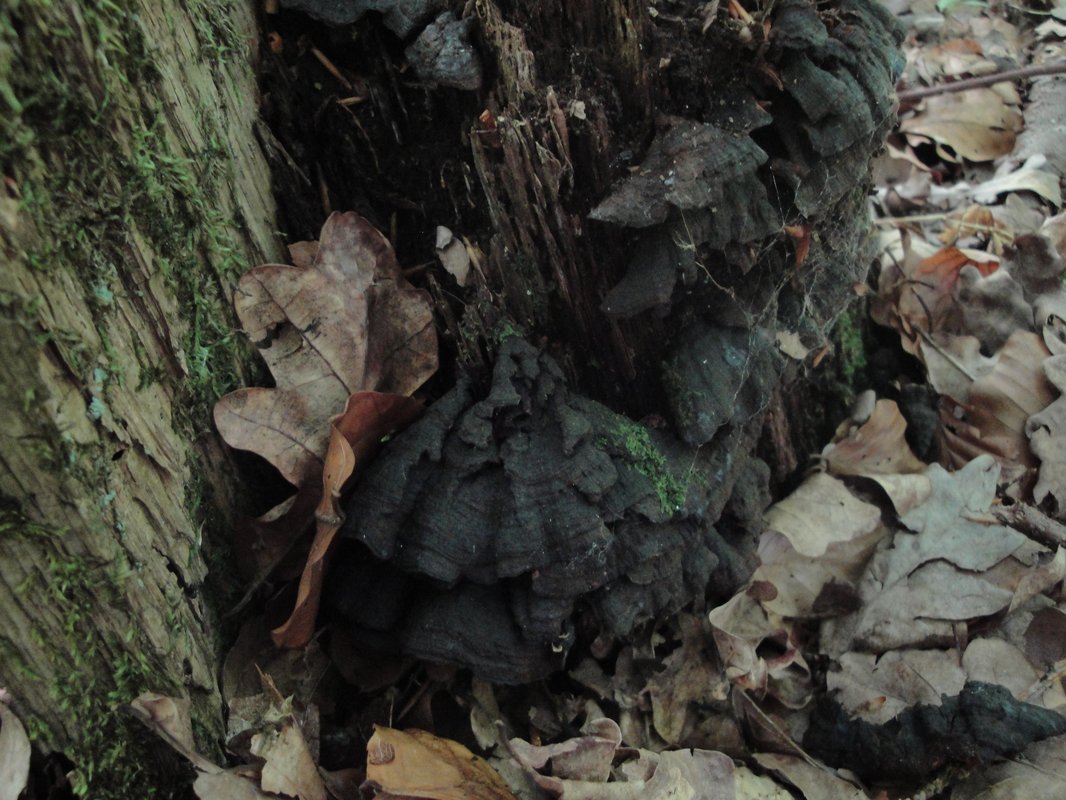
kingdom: Fungi
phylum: Basidiomycota
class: Agaricomycetes
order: Hymenochaetales
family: Hymenochaetaceae
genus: Hymenochaete
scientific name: Hymenochaete rubiginosa
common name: stiv ruslædersvamp
